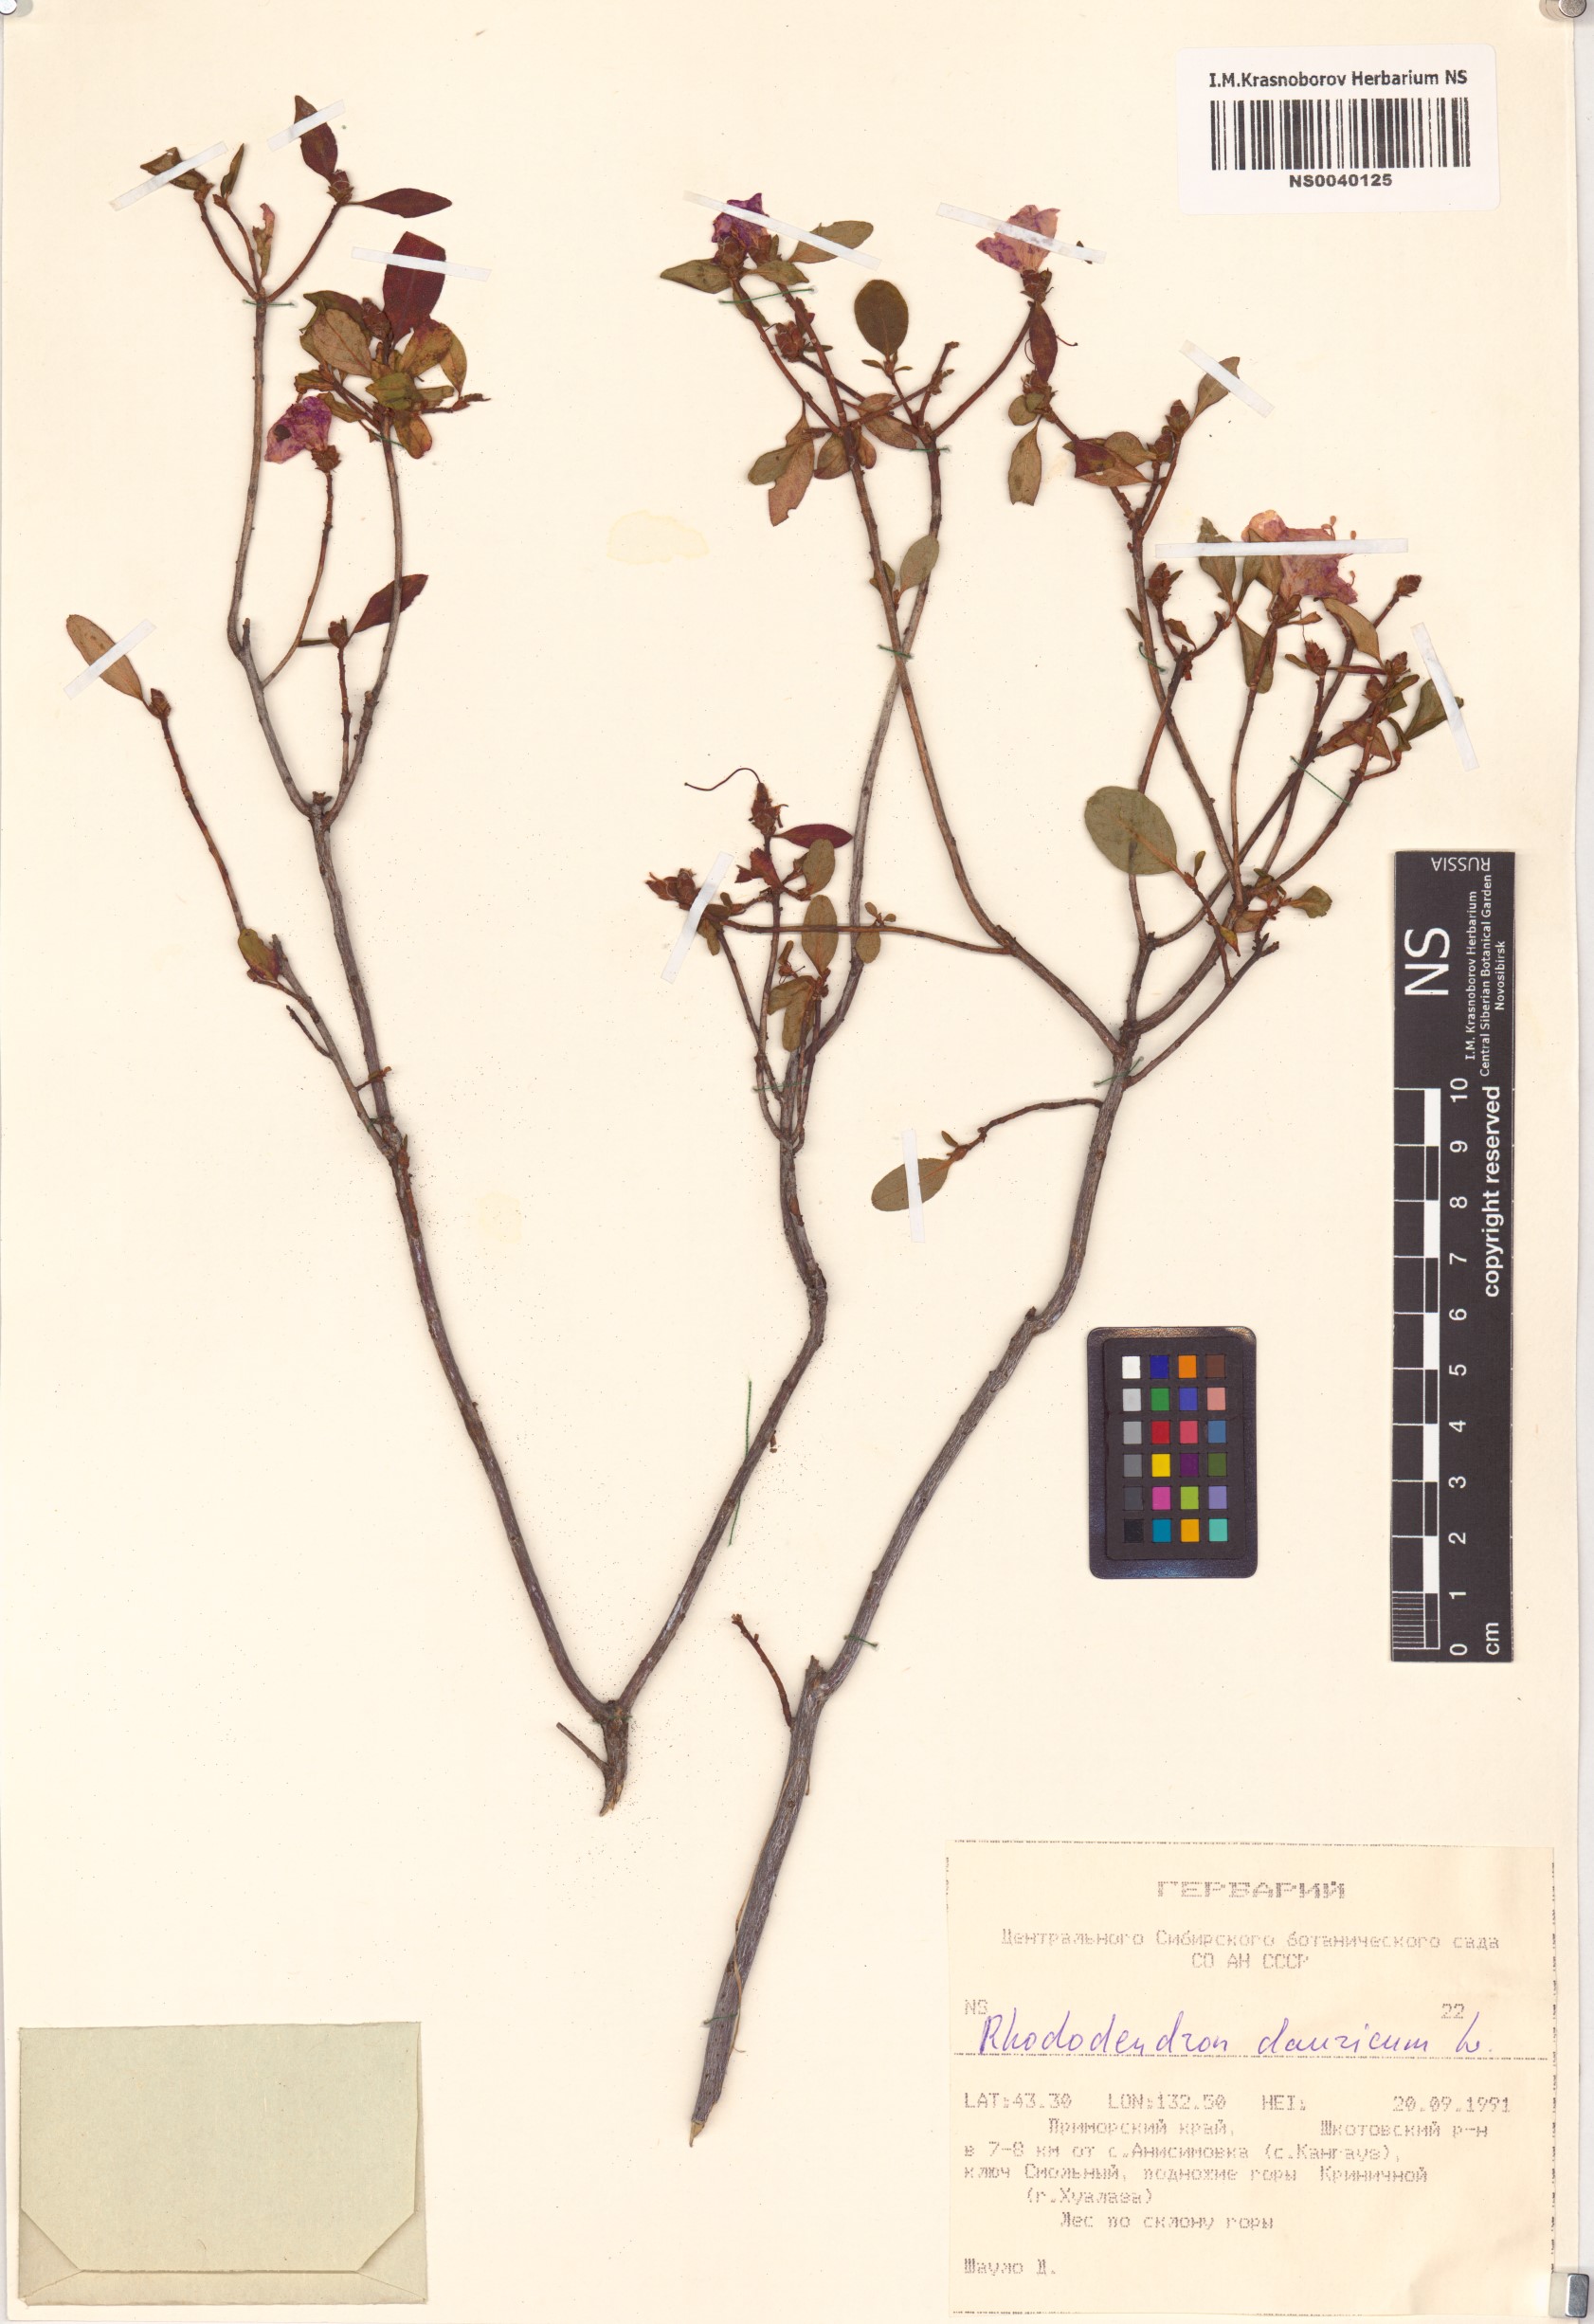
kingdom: Plantae
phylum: Tracheophyta
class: Magnoliopsida
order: Ericales
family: Ericaceae
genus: Rhododendron
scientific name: Rhododendron dauricum
